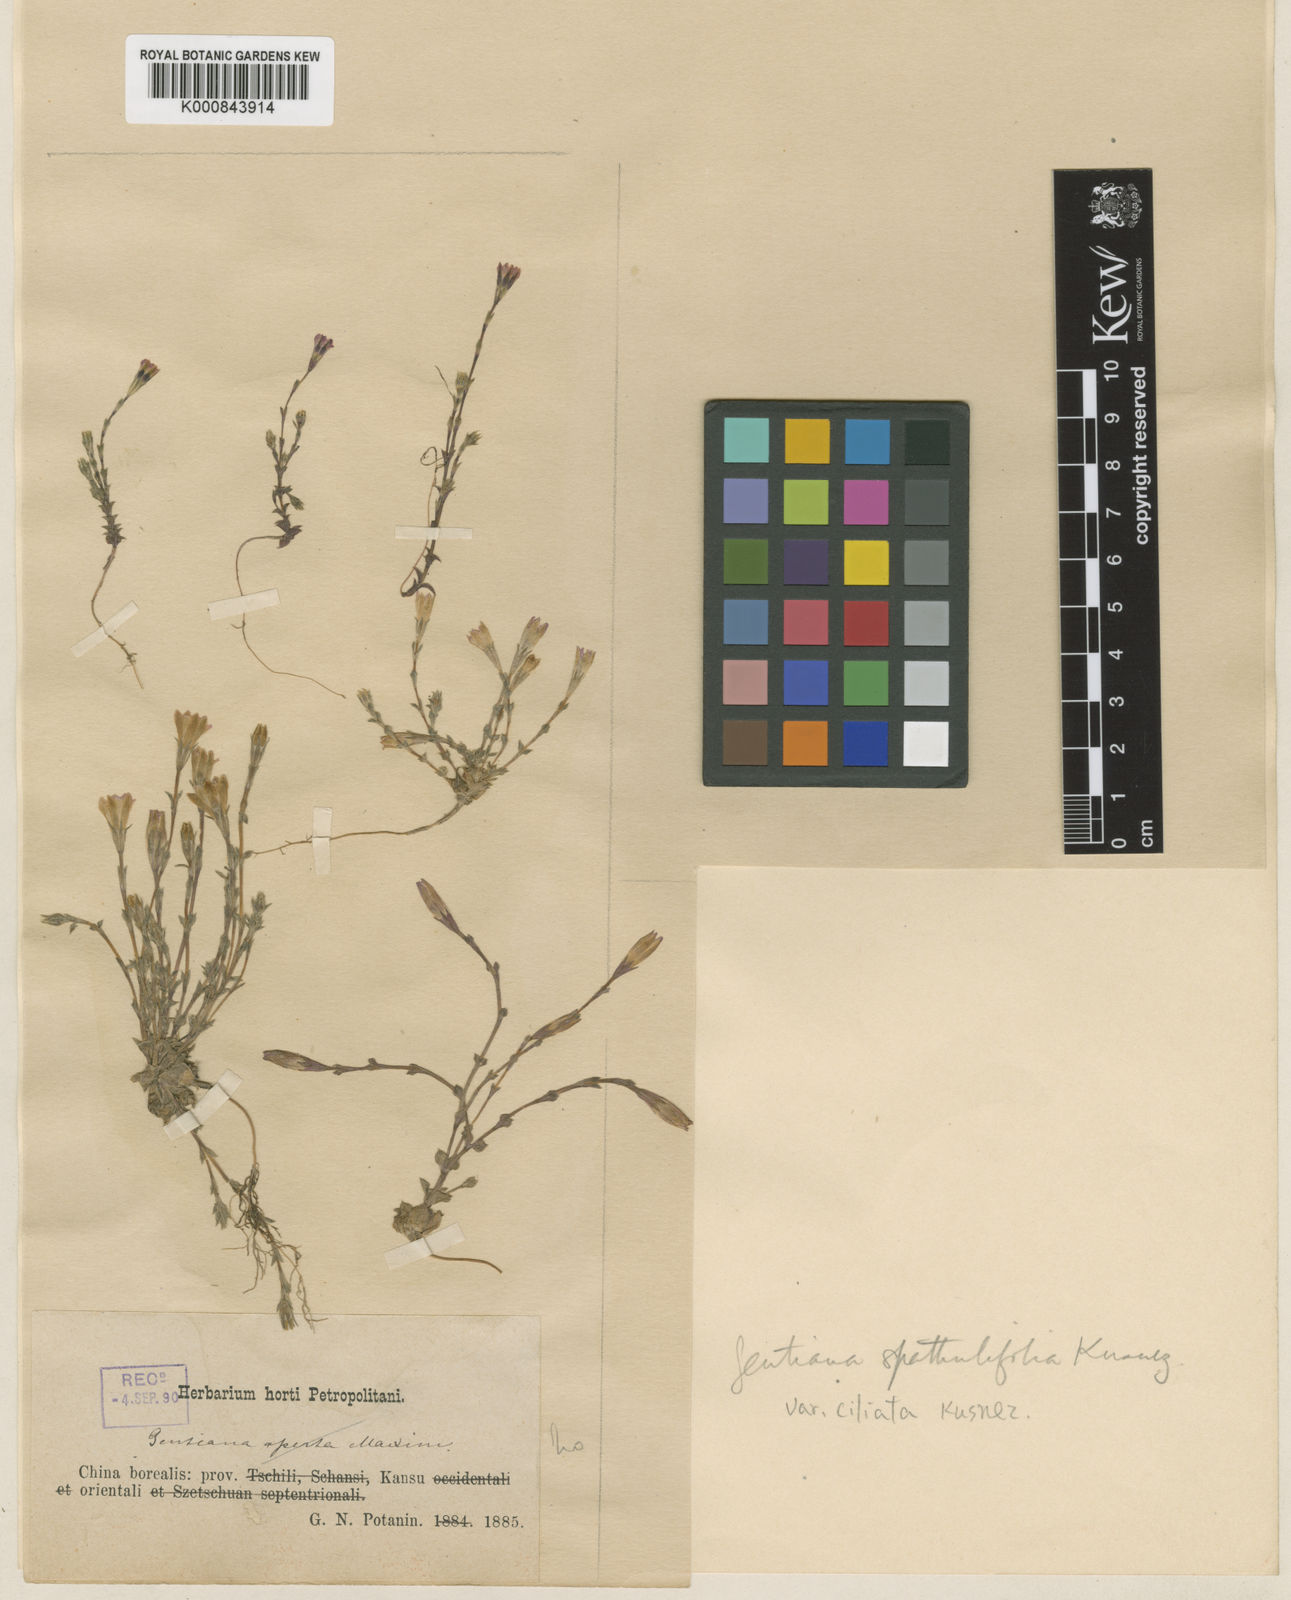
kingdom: Plantae
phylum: Tracheophyta
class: Magnoliopsida
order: Gentianales
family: Gentianaceae
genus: Gentiana
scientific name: Gentiana spathulifolia
